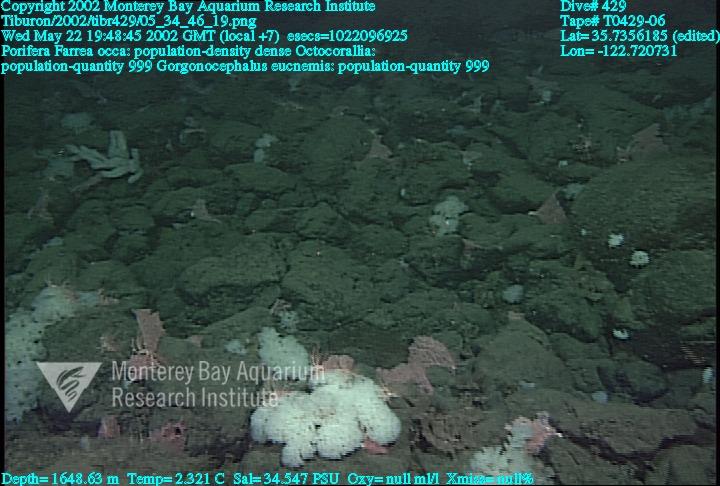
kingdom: Animalia
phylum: Porifera
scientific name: Porifera
